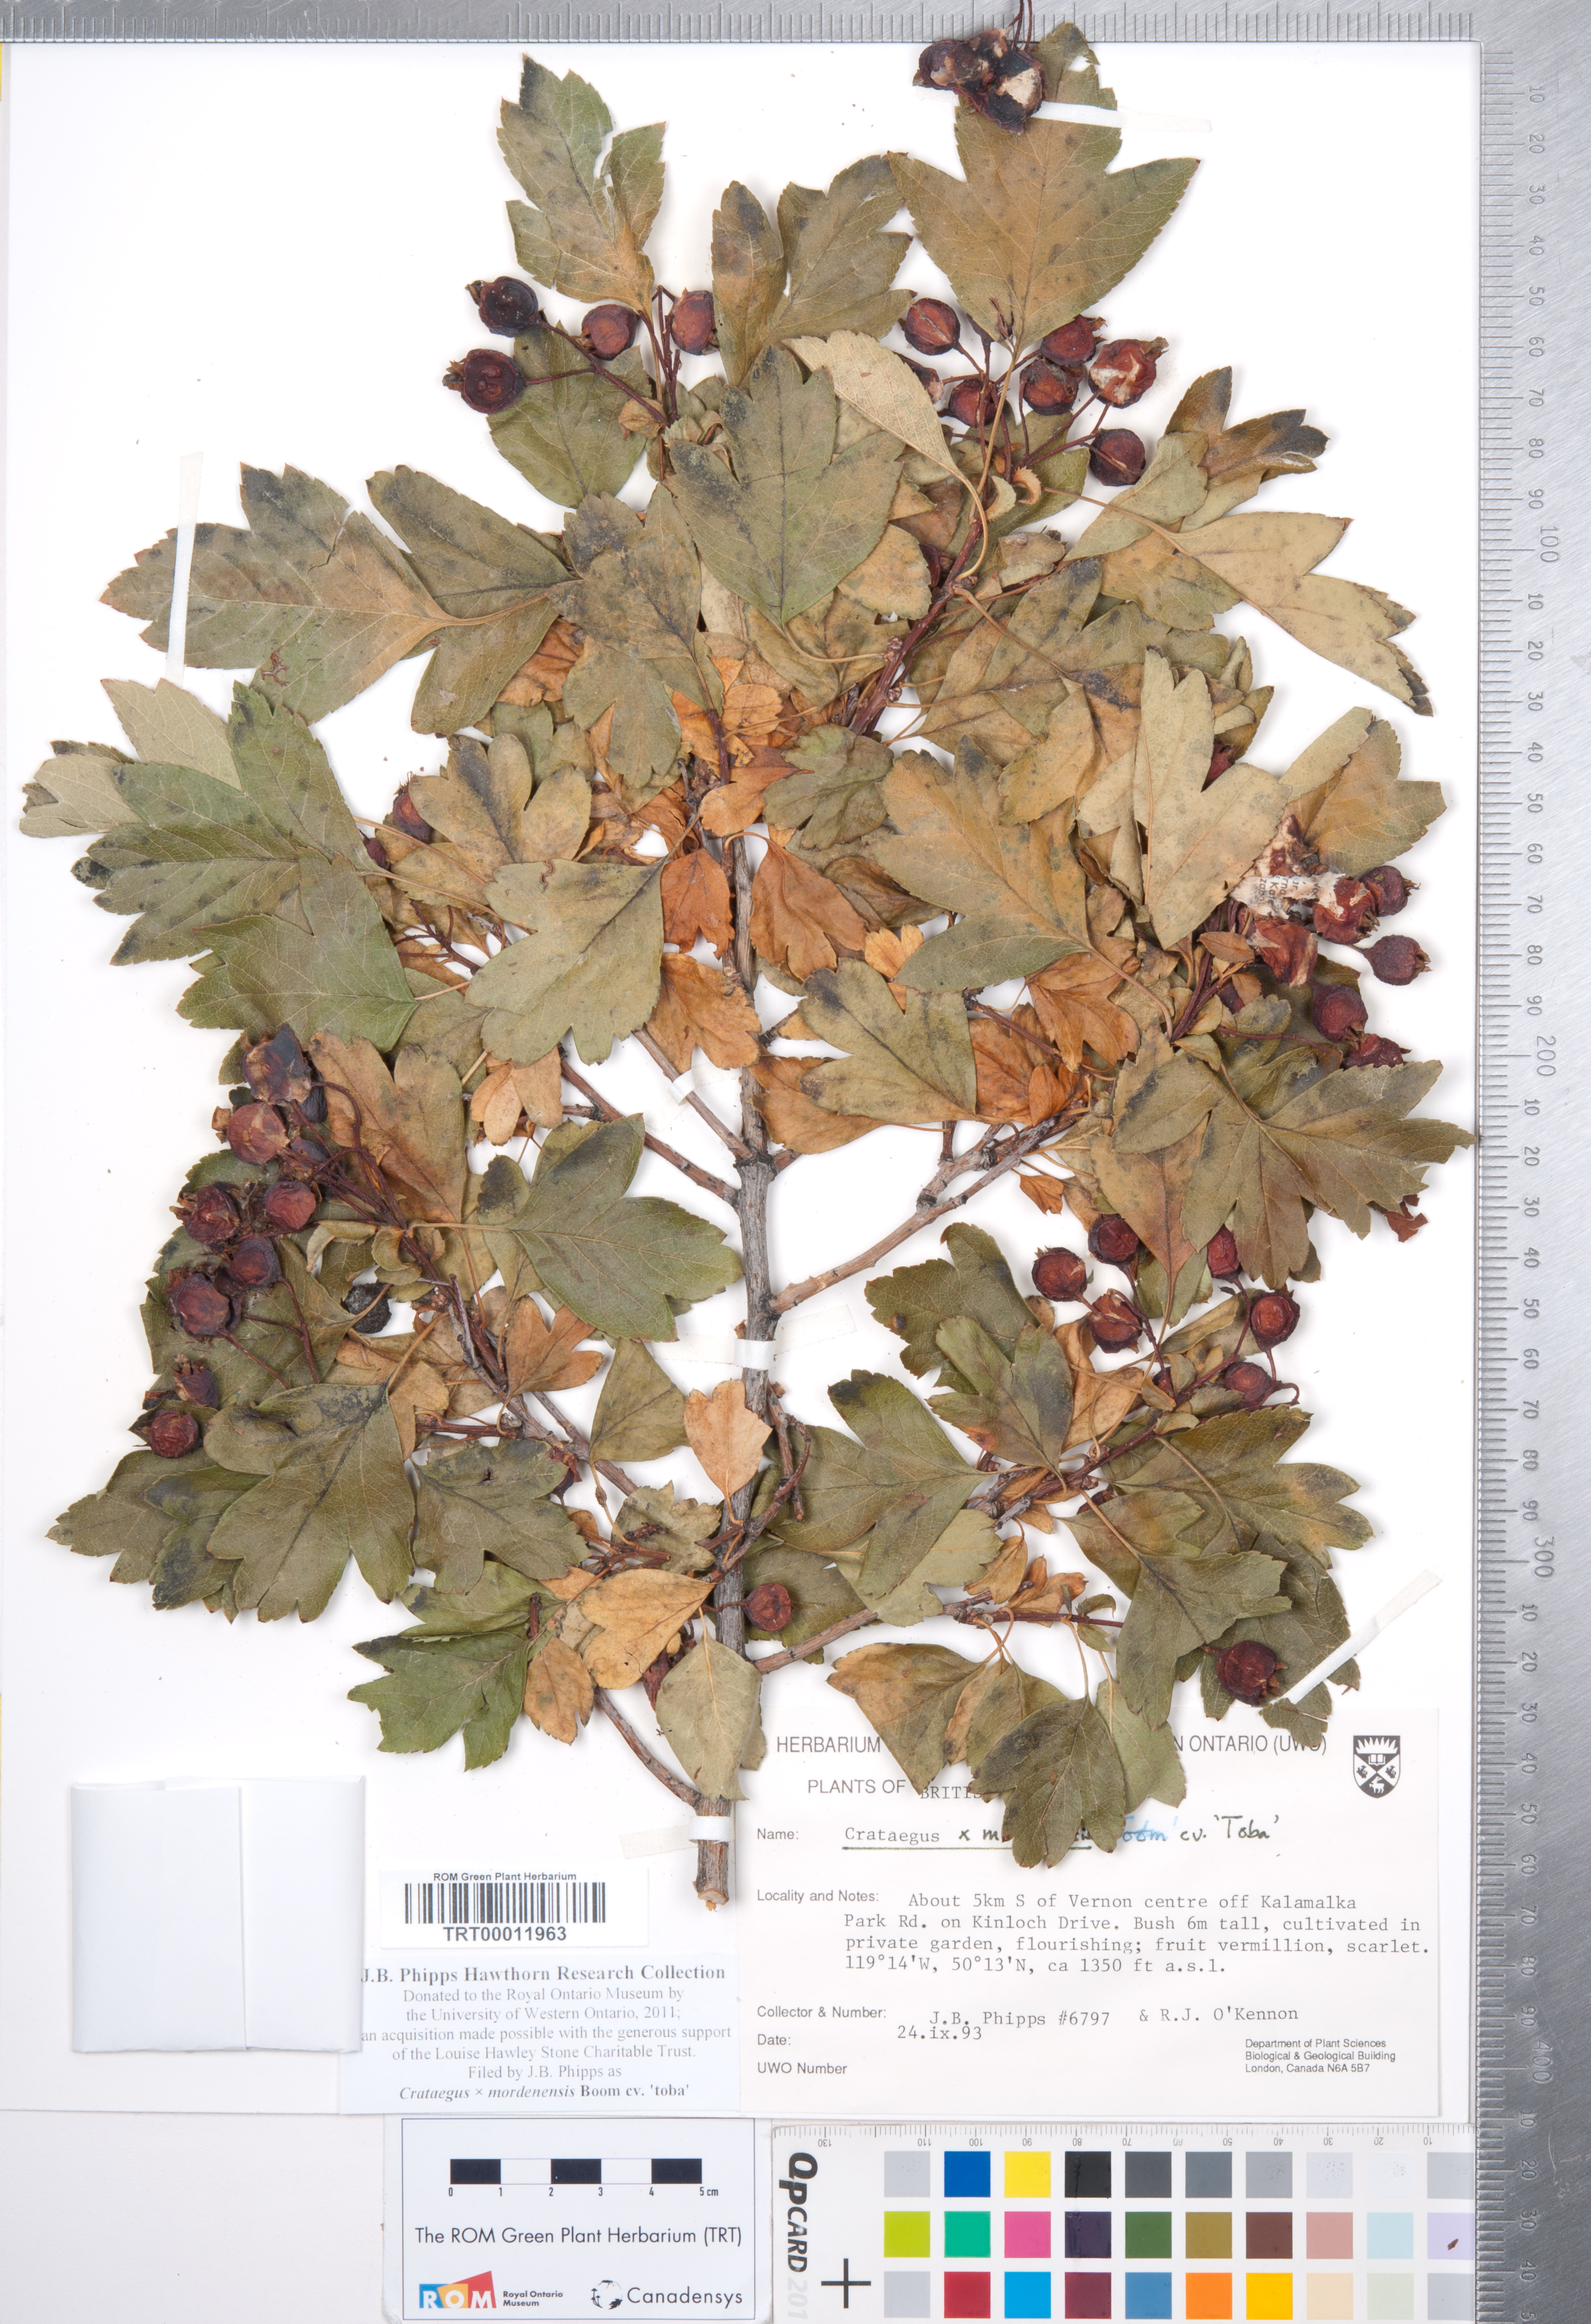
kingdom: Plantae
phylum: Tracheophyta
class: Magnoliopsida
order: Rosales
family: Rosaceae
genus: Crataegus
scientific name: Crataegus
